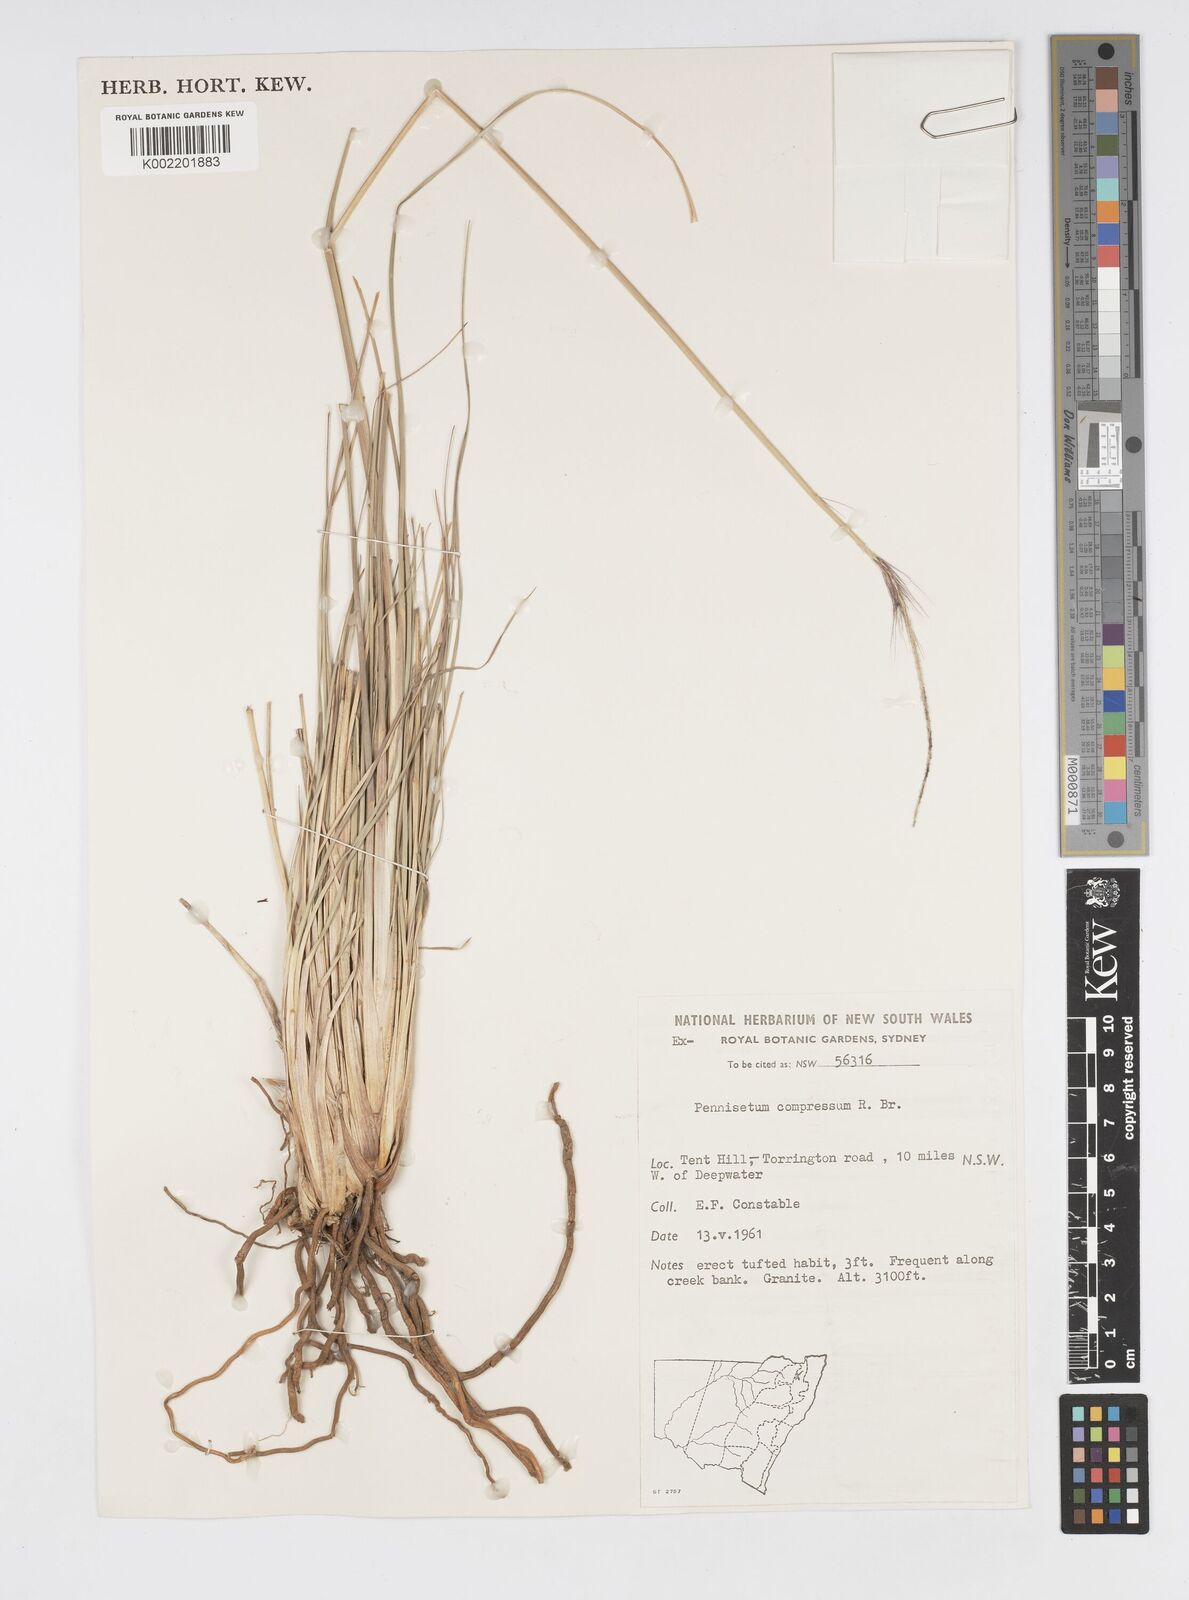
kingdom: Plantae
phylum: Tracheophyta
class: Liliopsida
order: Poales
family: Poaceae
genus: Cenchrus
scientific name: Cenchrus alopecuroides
